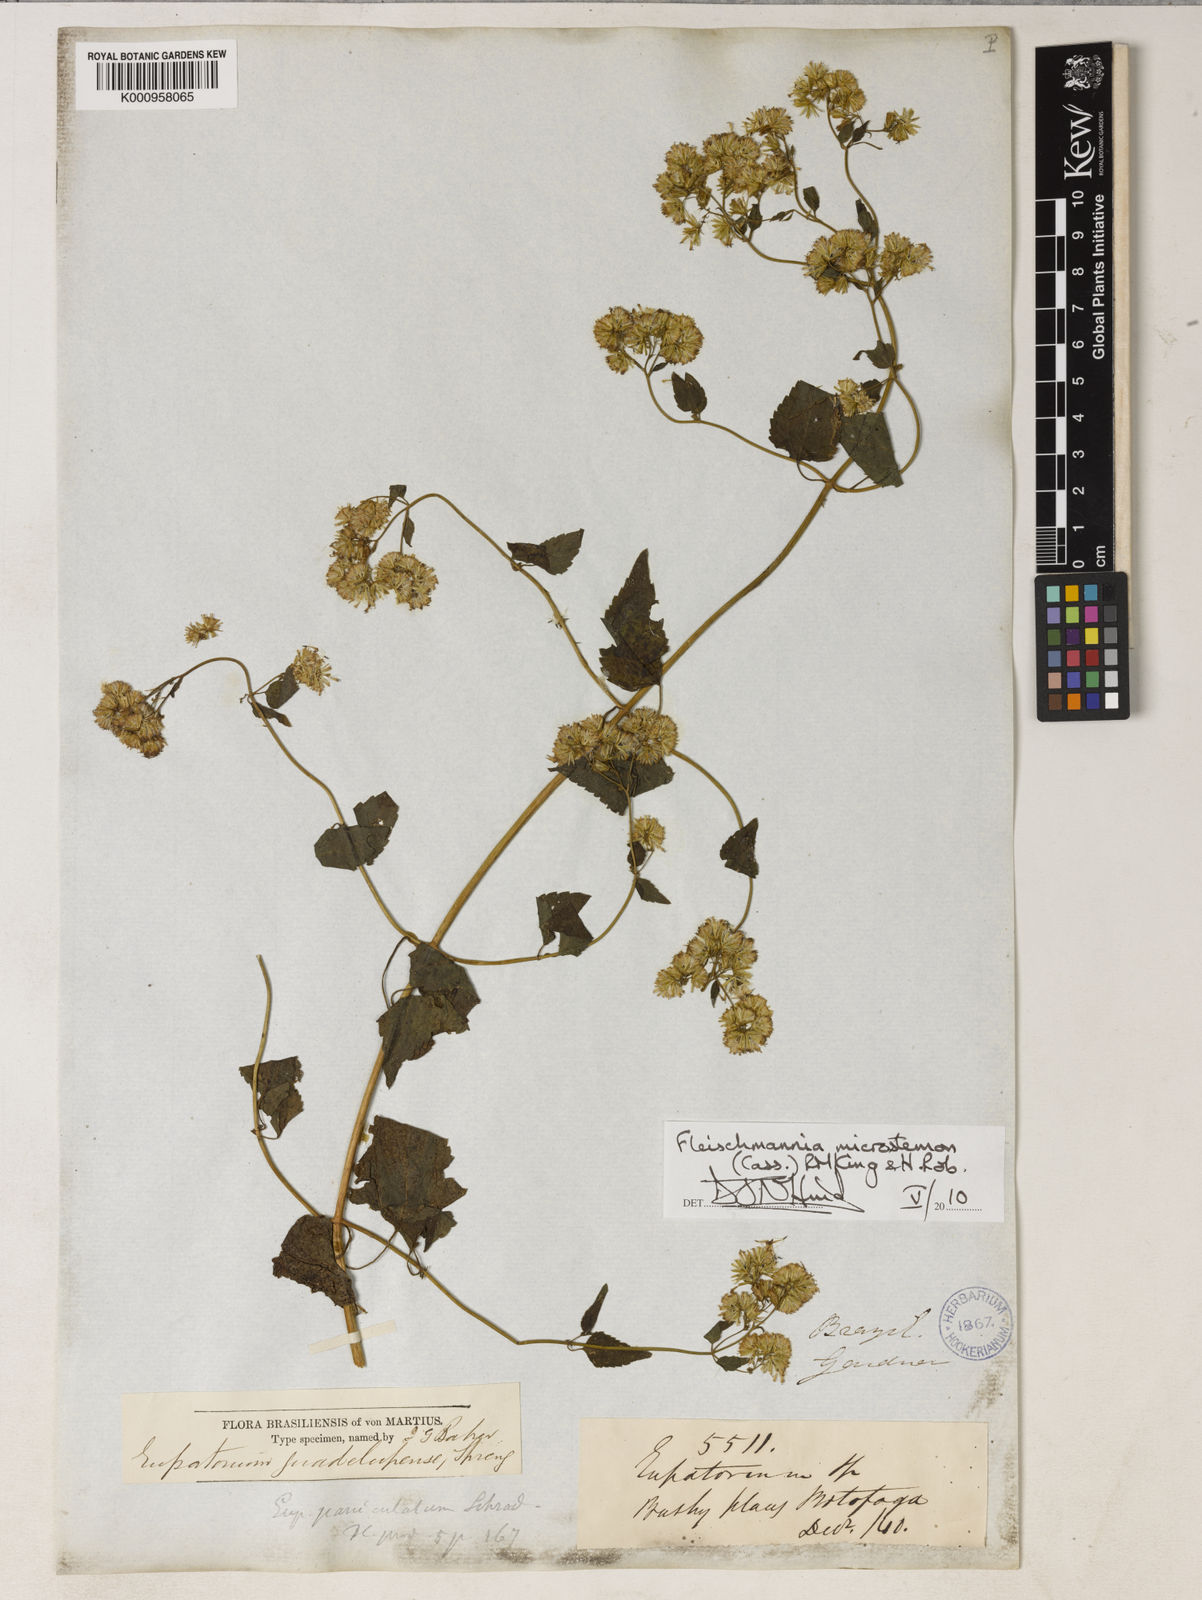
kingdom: Plantae
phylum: Tracheophyta
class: Magnoliopsida
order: Asterales
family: Asteraceae
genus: Fleischmannia
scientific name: Fleischmannia microstemon
